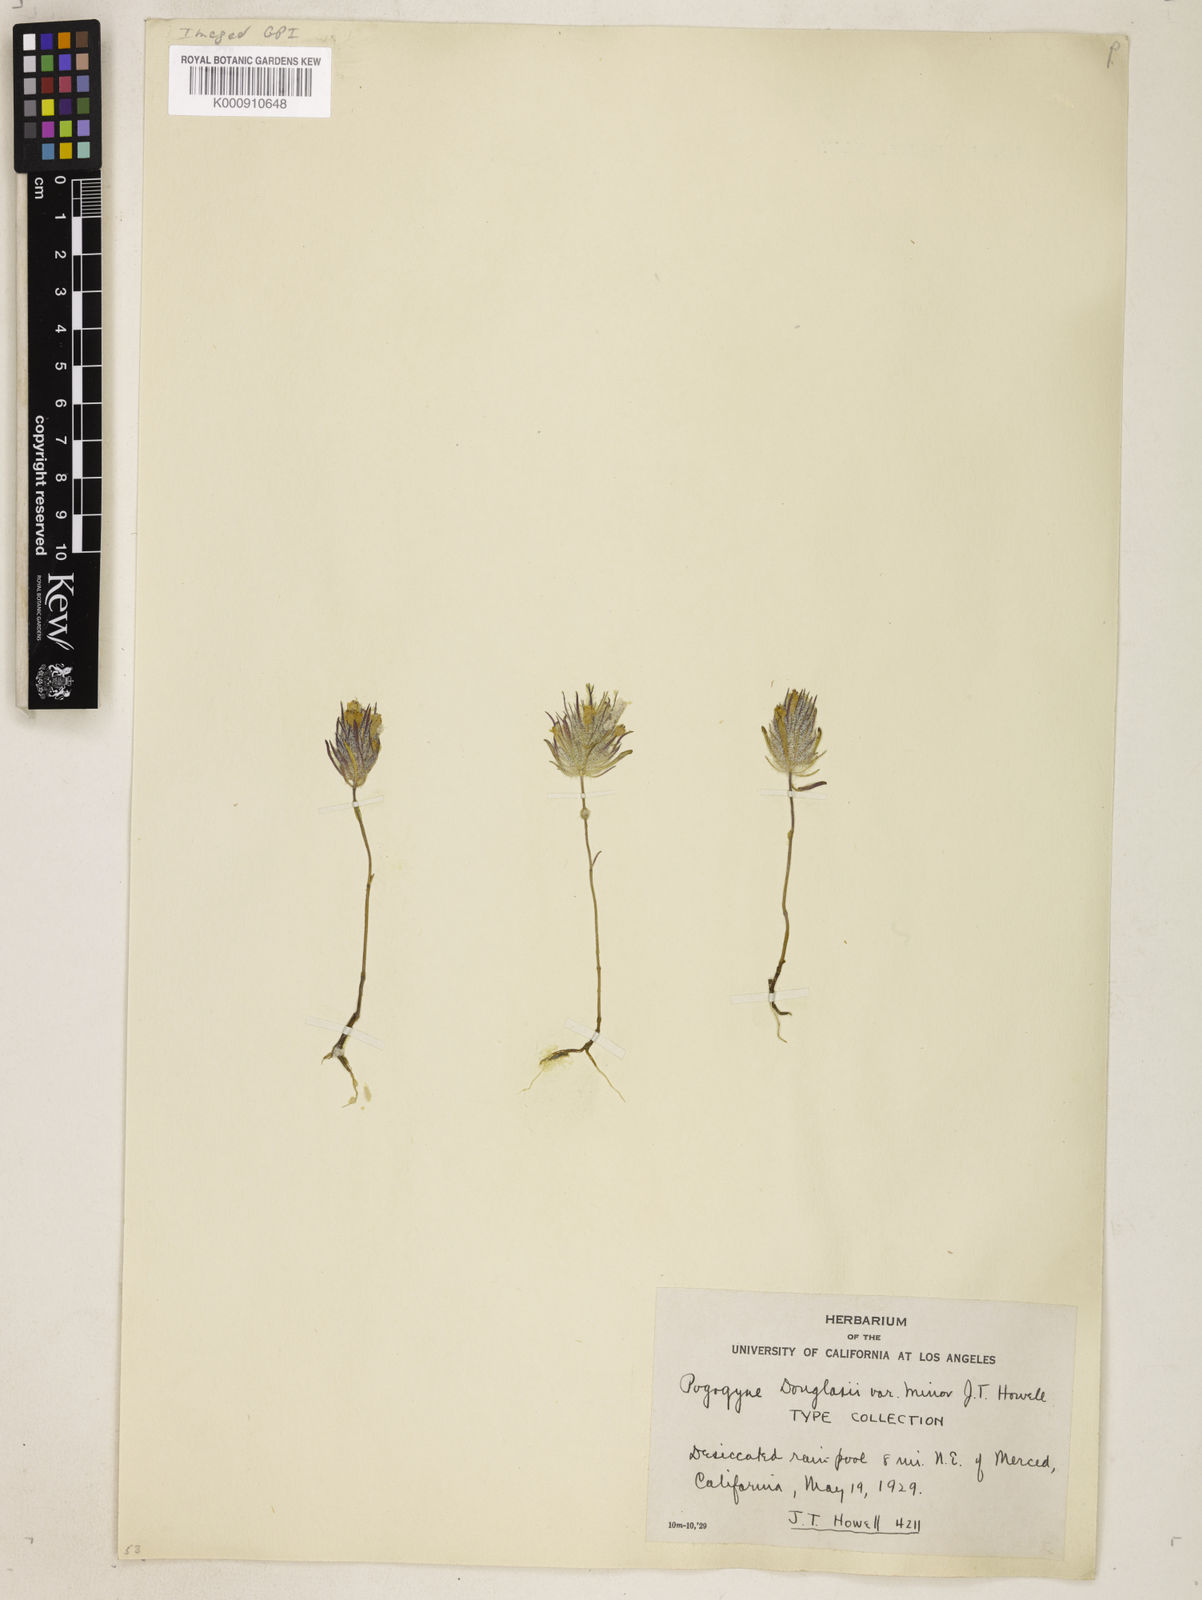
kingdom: Plantae
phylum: Tracheophyta
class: Magnoliopsida
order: Lamiales
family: Lamiaceae
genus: Pogogyne
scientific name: Pogogyne douglasii
